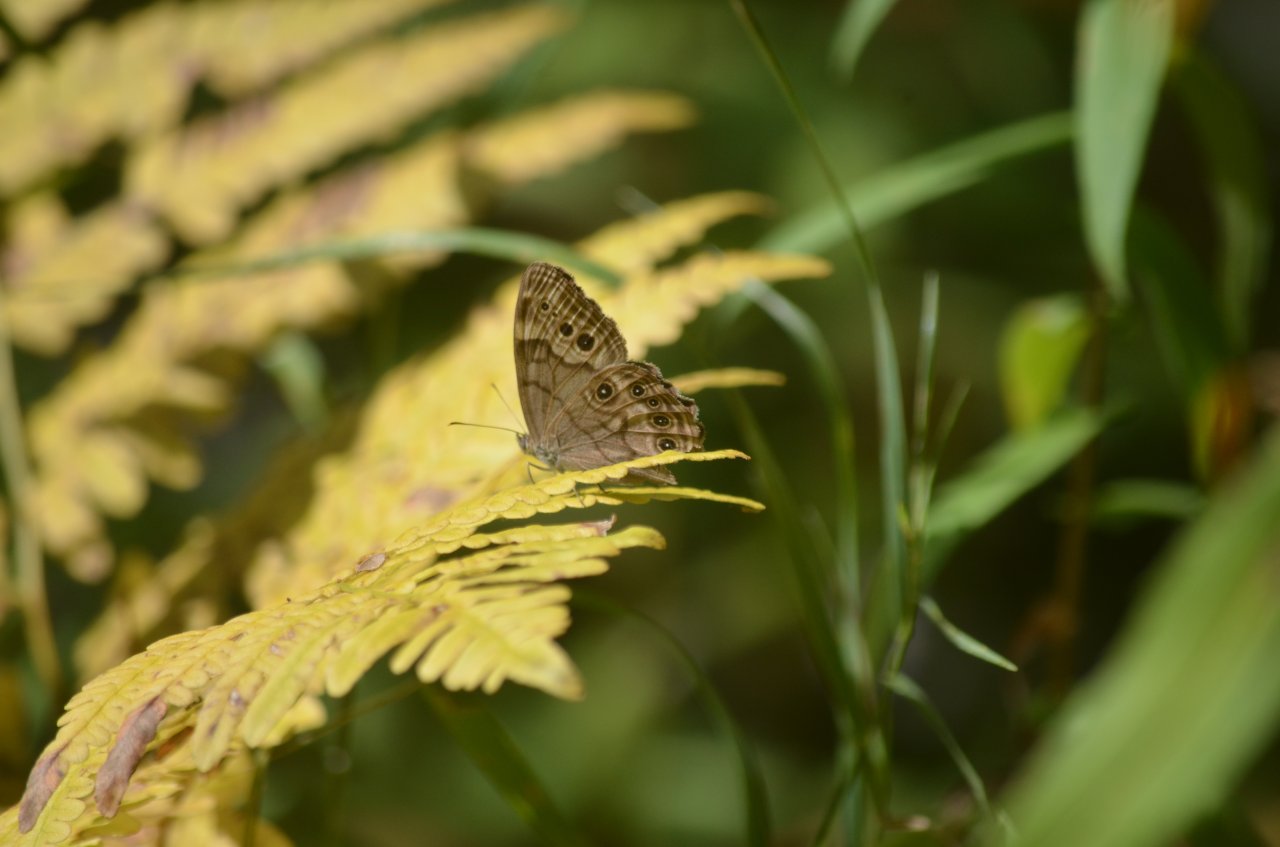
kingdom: Animalia
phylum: Arthropoda
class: Insecta
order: Lepidoptera
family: Nymphalidae
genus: Lethe
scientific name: Lethe anthedon
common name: Northern Pearly-Eye
